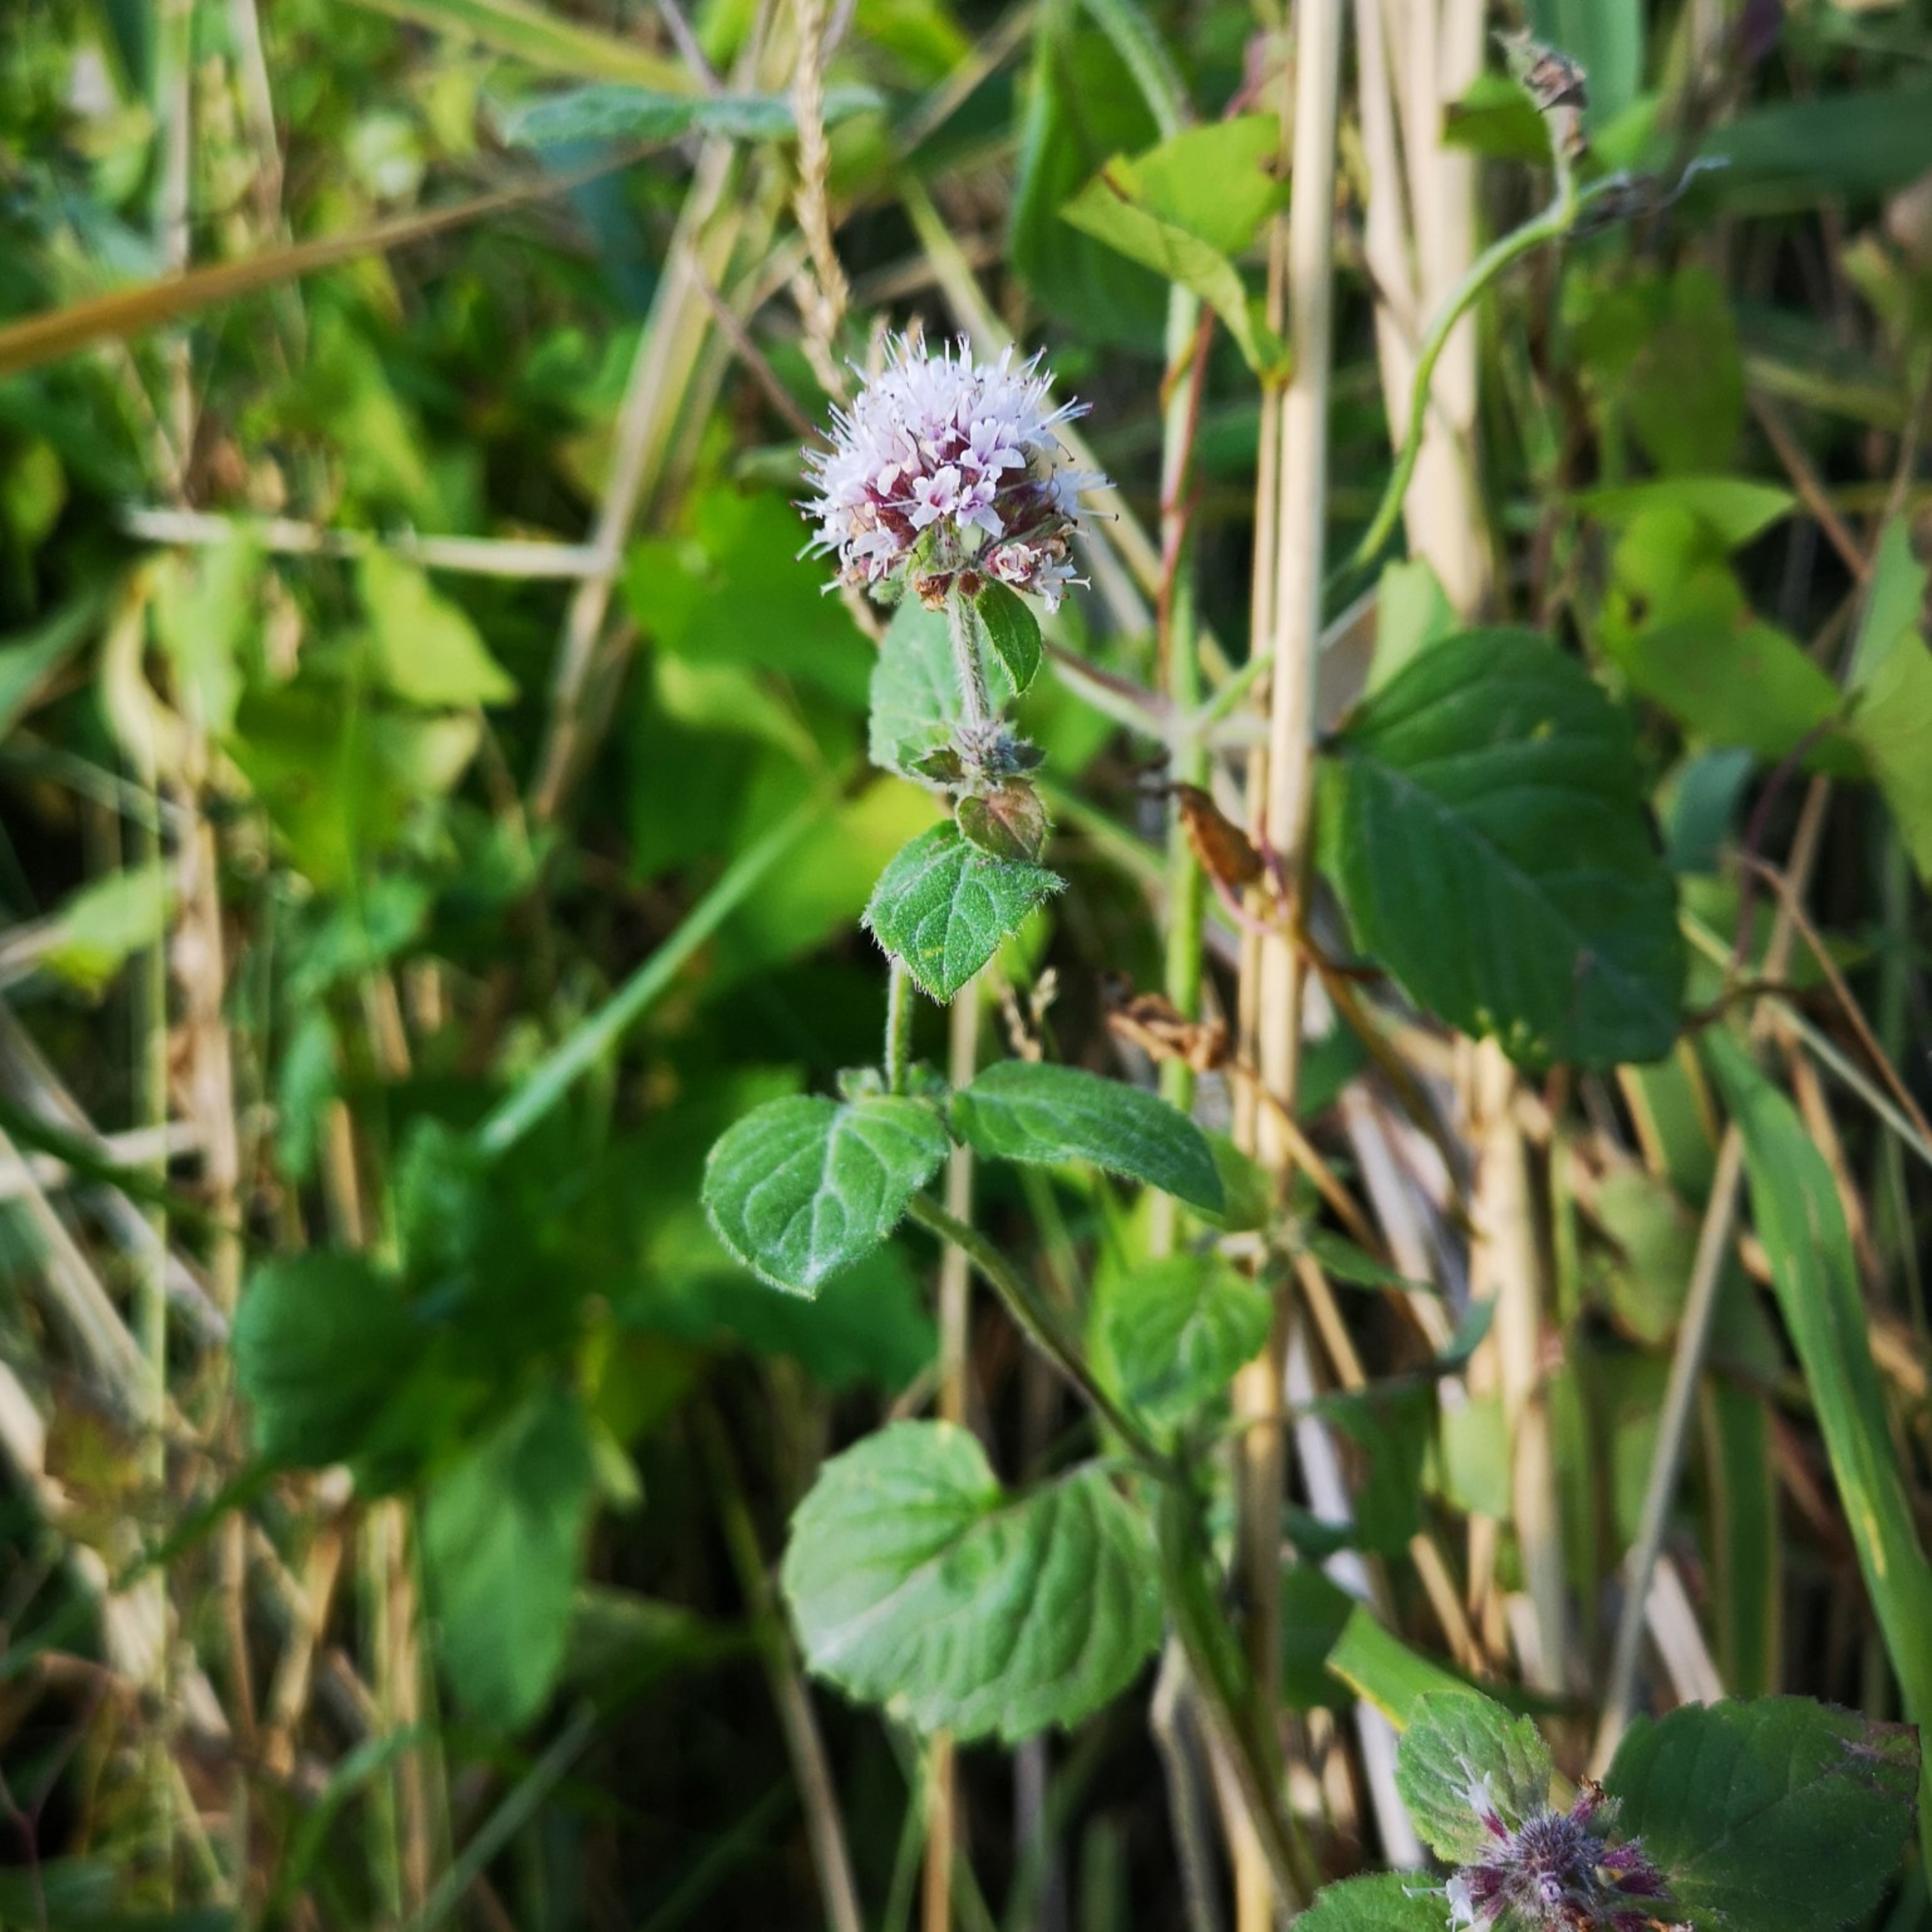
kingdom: Plantae
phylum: Tracheophyta
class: Magnoliopsida
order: Lamiales
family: Lamiaceae
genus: Mentha
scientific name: Mentha aquatica
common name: Vand-mynte
